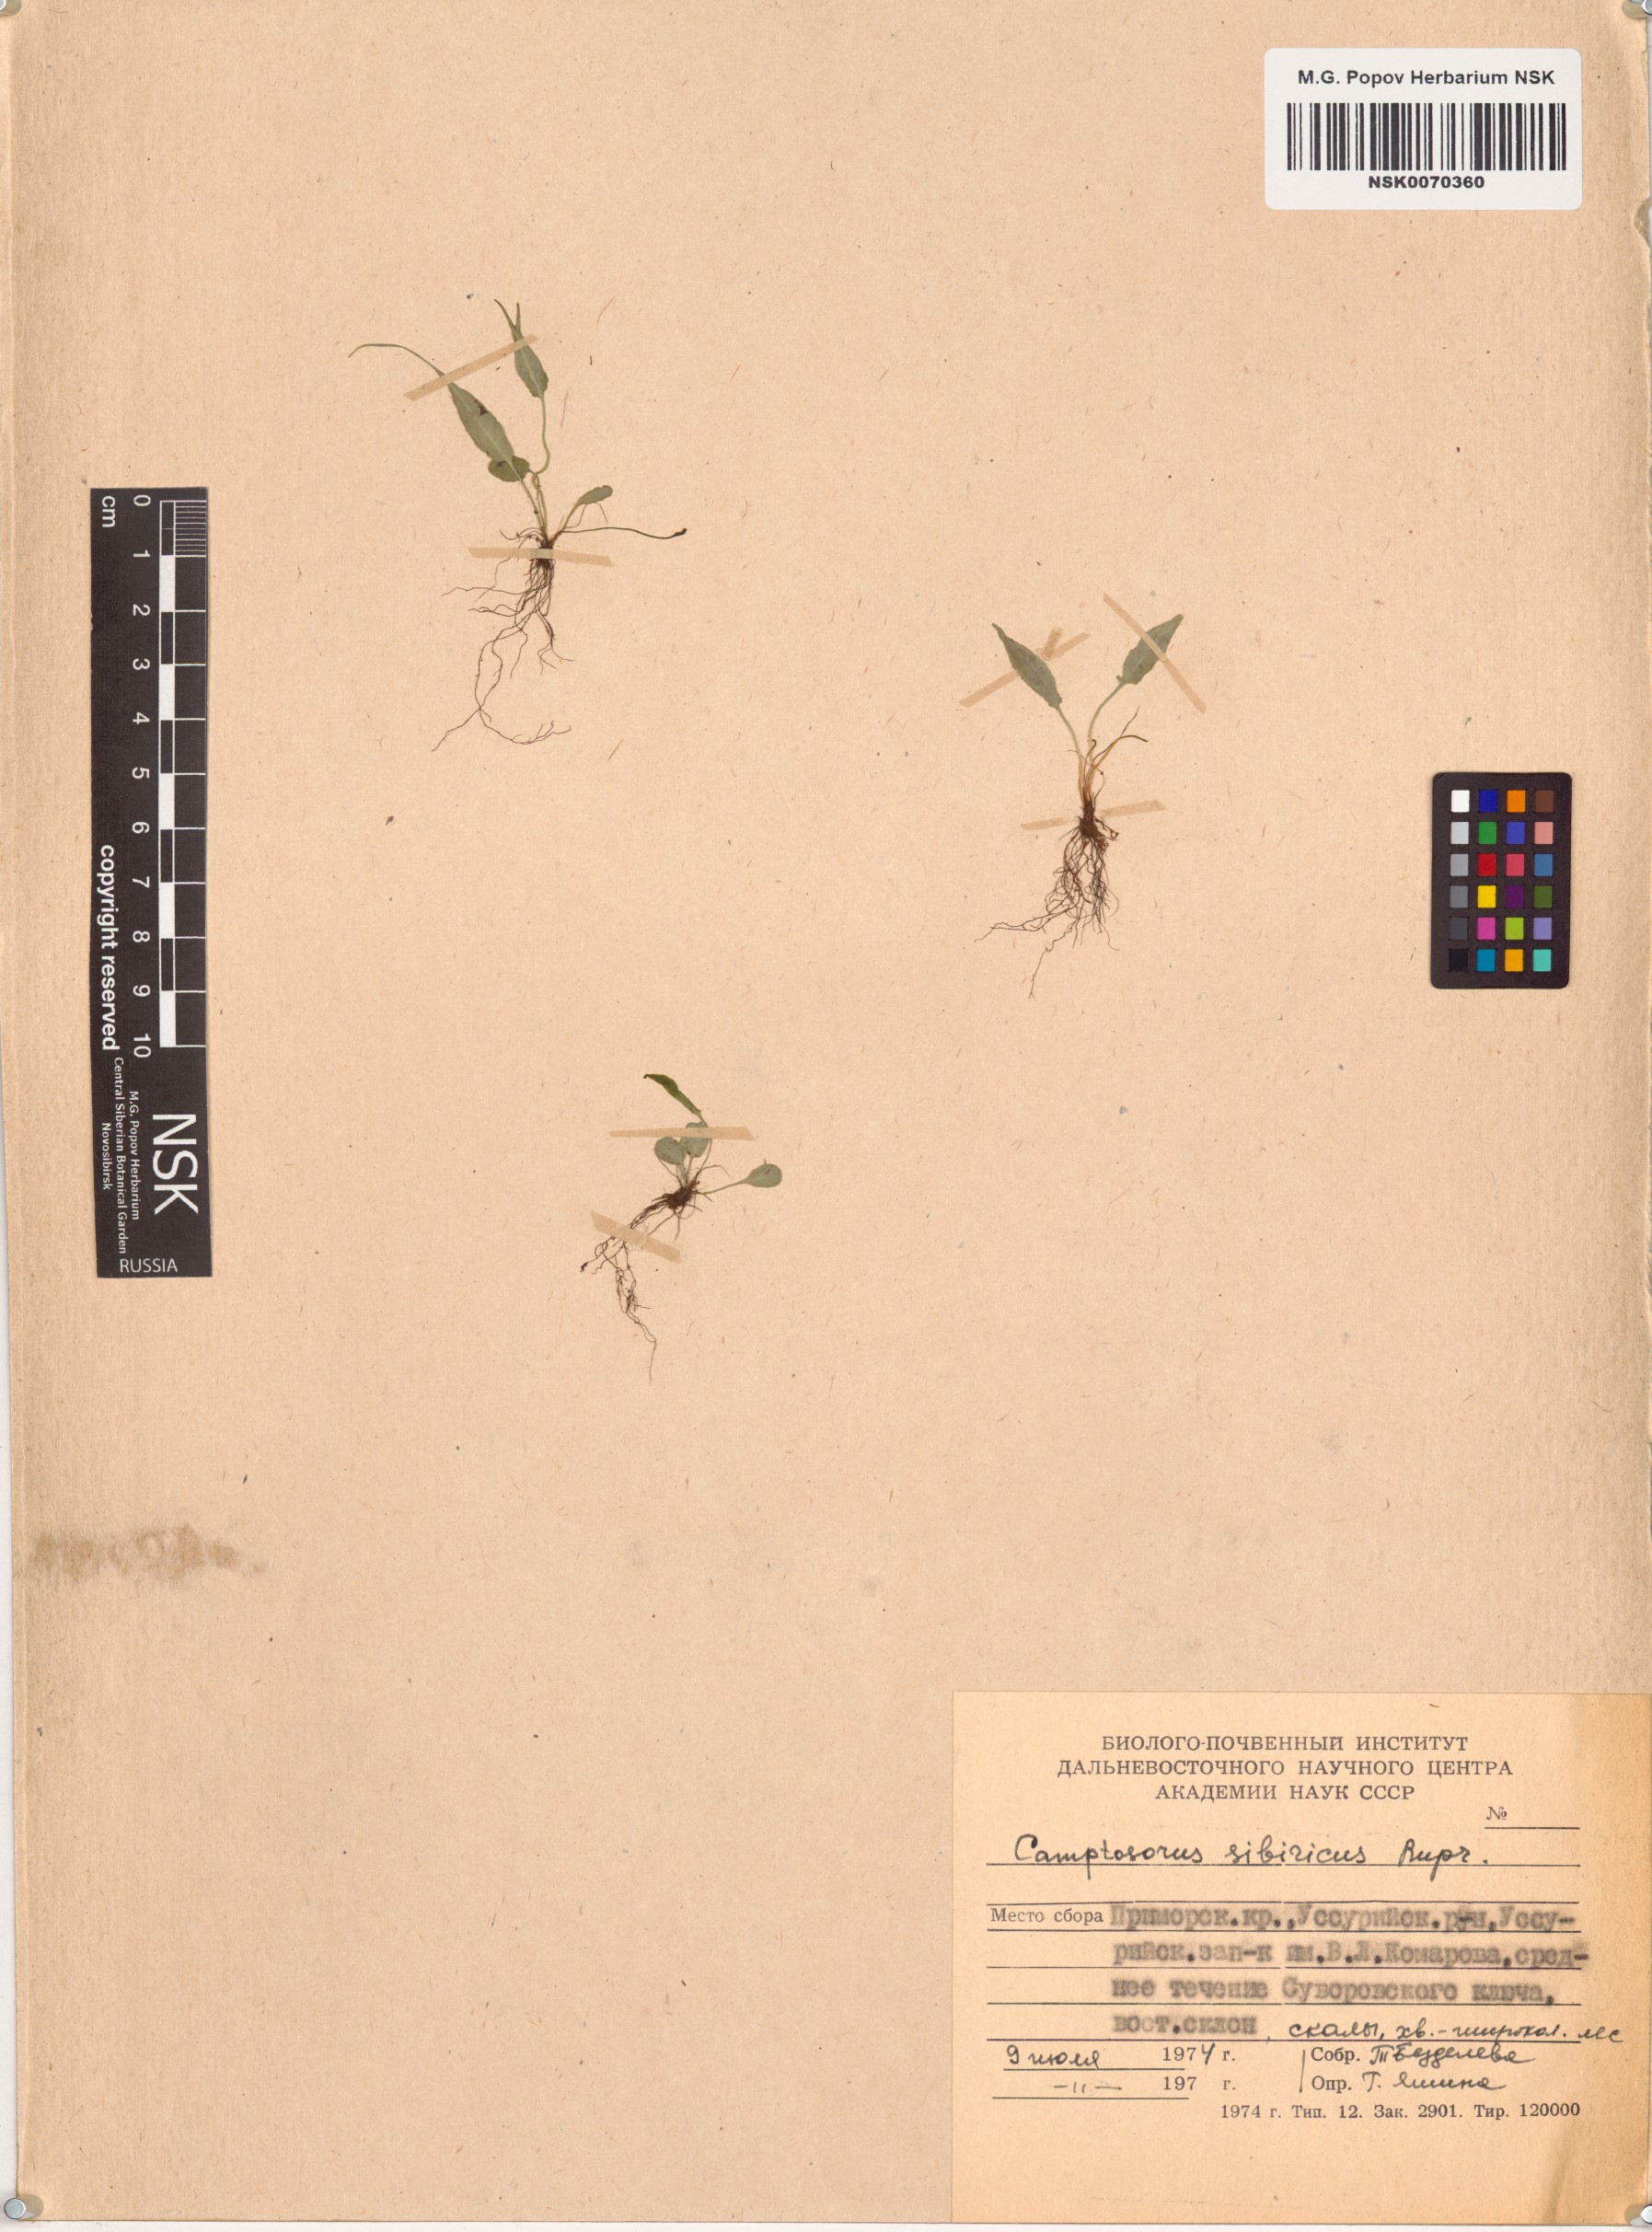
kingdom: Plantae
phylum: Tracheophyta
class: Polypodiopsida
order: Polypodiales
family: Aspleniaceae
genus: Asplenium
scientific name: Asplenium ruprechtii
